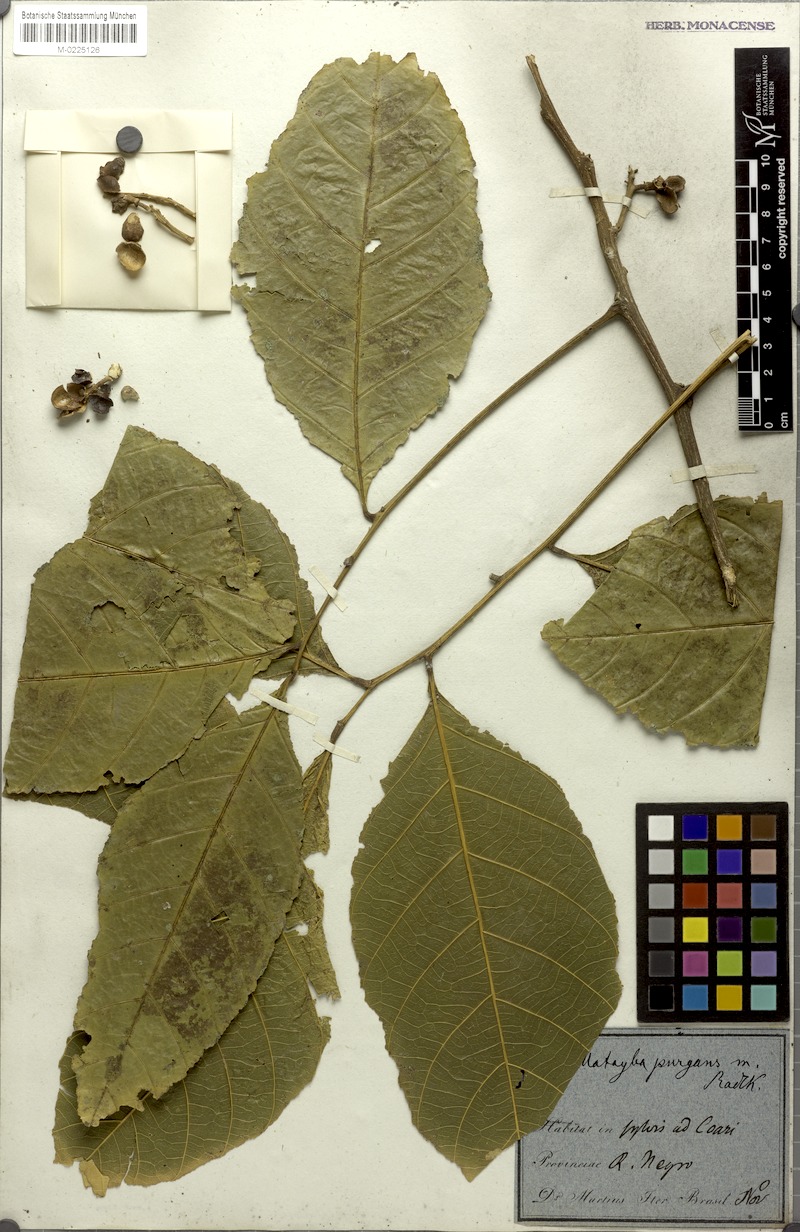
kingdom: Plantae
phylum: Tracheophyta
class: Magnoliopsida
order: Sapindales
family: Sapindaceae
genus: Matayba
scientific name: Matayba purgans
